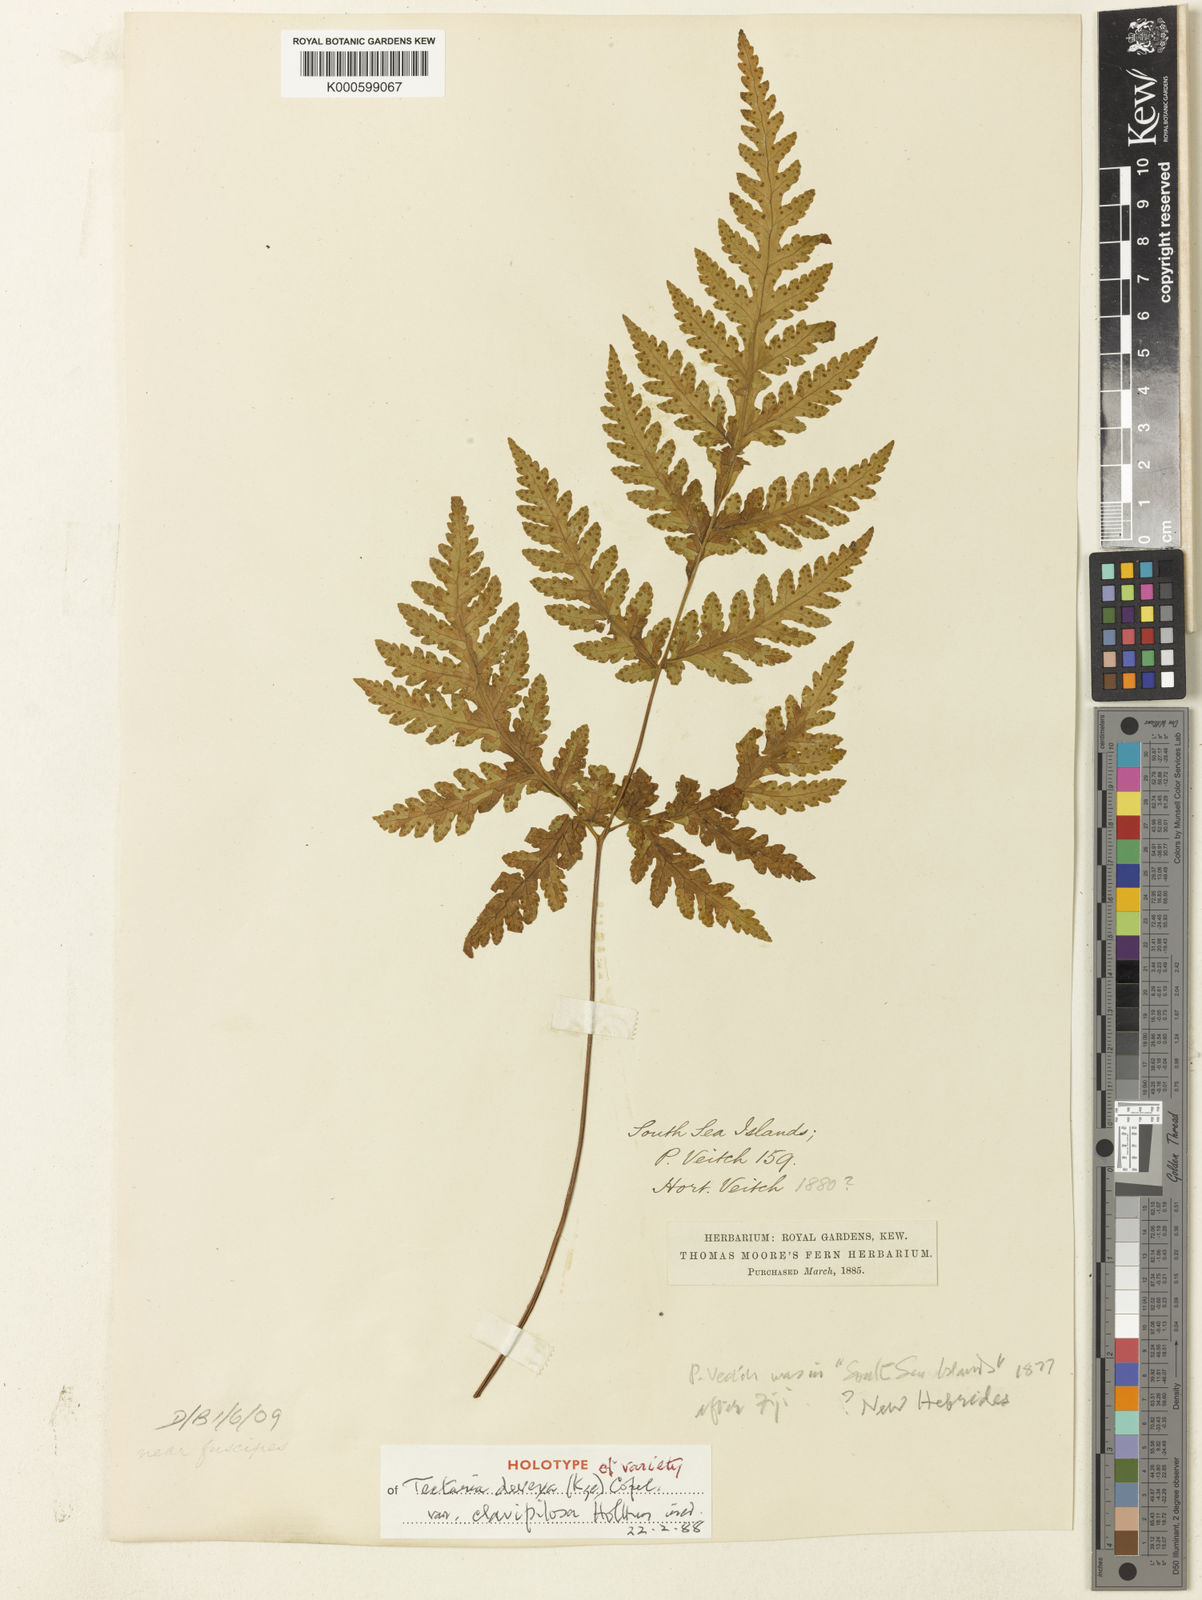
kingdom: Plantae
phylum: Tracheophyta
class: Polypodiopsida
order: Polypodiales
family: Tectariaceae
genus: Tectaria
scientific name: Tectaria membranacea
